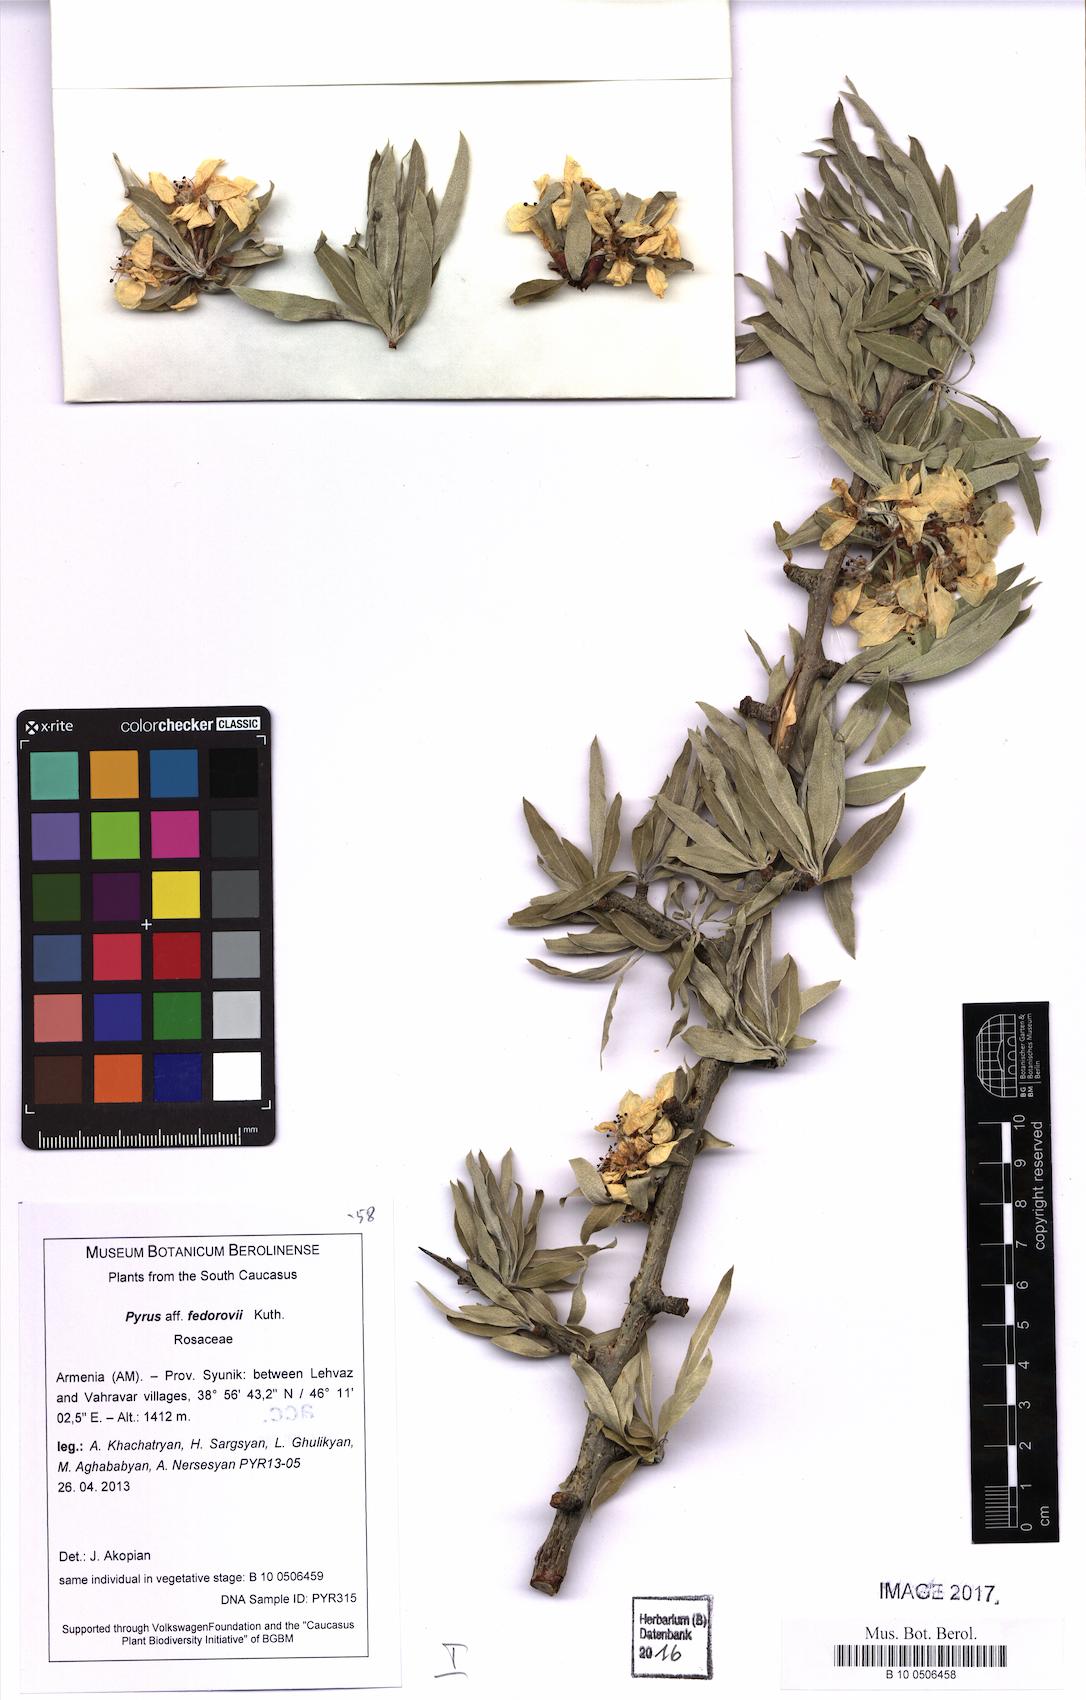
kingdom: Plantae
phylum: Tracheophyta
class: Magnoliopsida
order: Rosales
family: Rosaceae
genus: Pyrus
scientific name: Pyrus fedorovii
